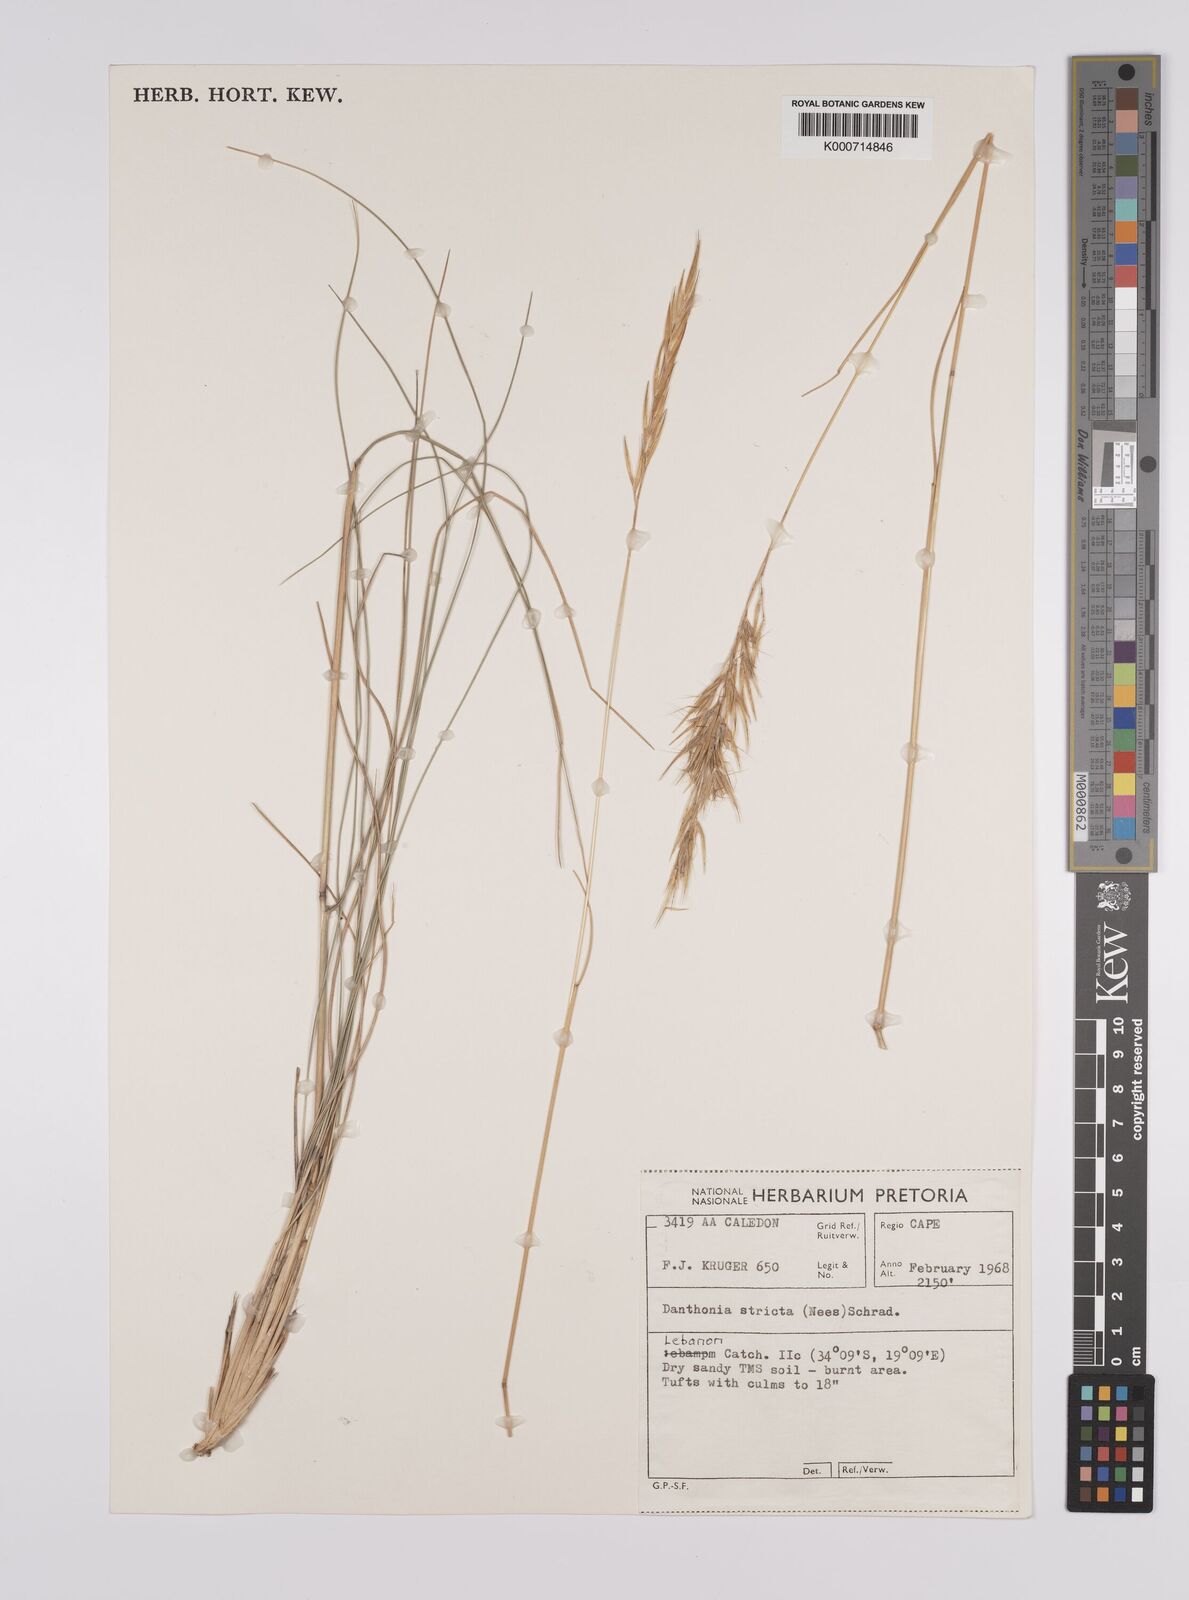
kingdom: Plantae
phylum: Tracheophyta
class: Liliopsida
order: Poales
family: Poaceae
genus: Rytidosperma
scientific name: Rytidosperma
